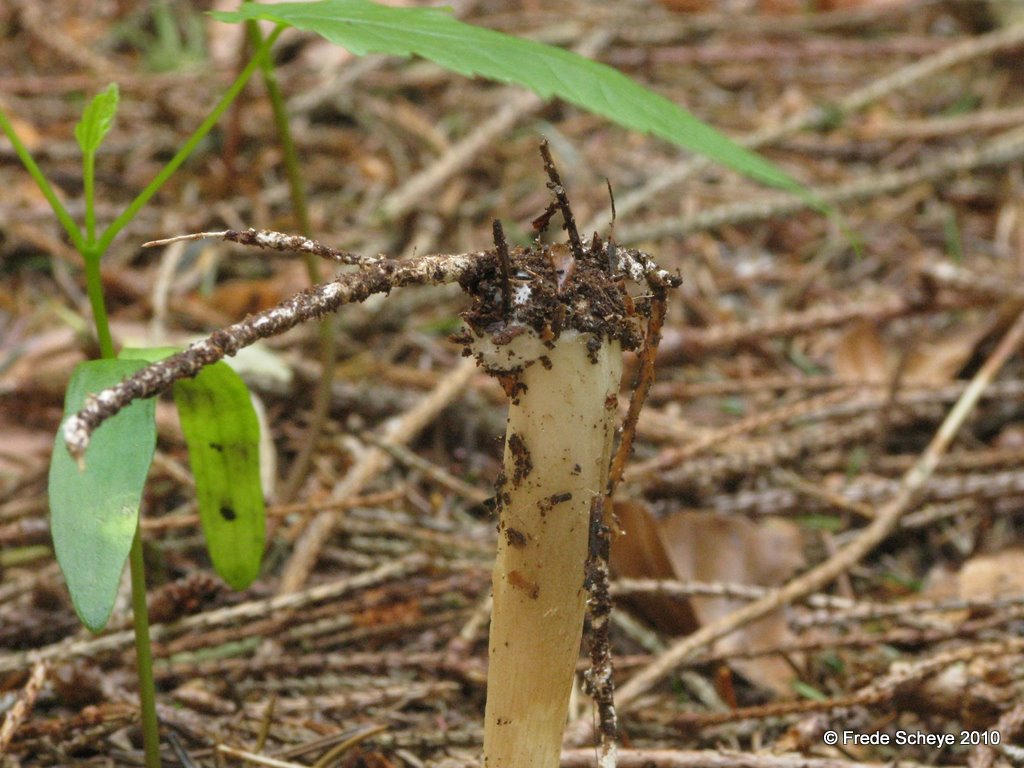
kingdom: Fungi
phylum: Basidiomycota
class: Agaricomycetes
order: Agaricales
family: Tricholomataceae
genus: Megacollybia
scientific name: Megacollybia platyphylla
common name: bredbladet væbnerhat
